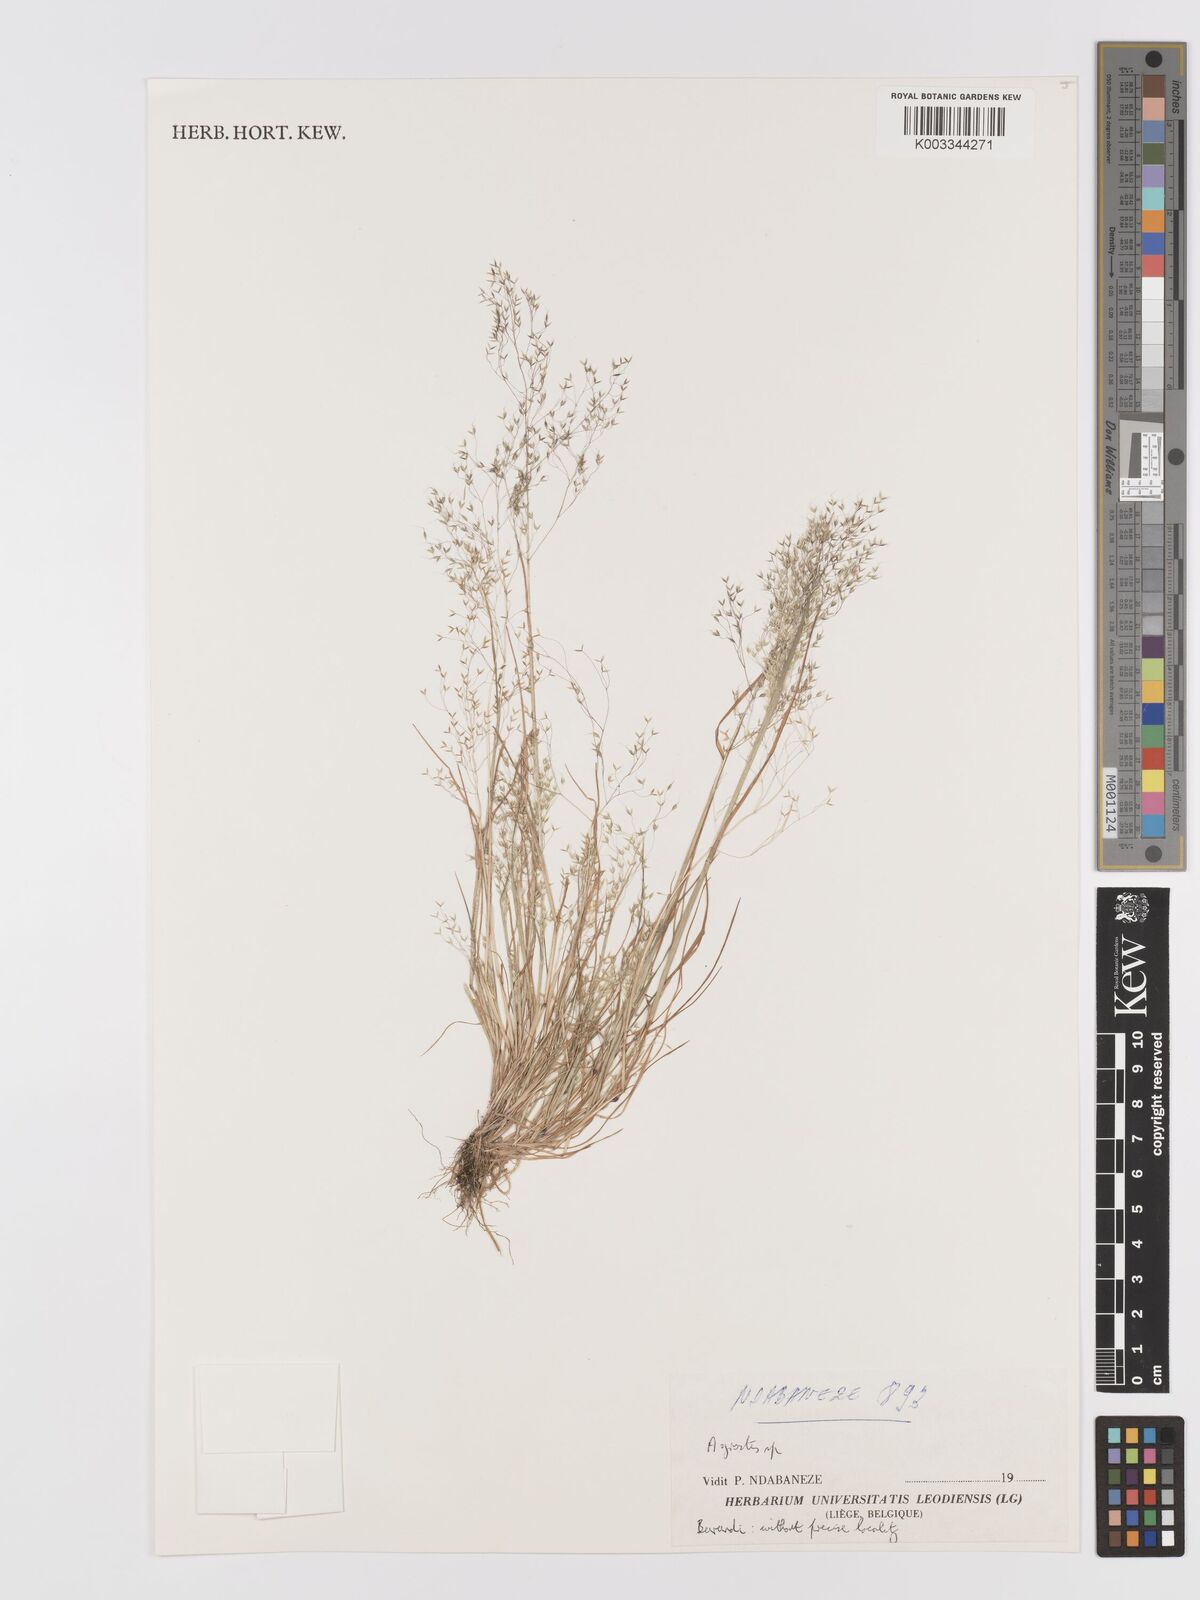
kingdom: Plantae
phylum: Tracheophyta
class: Liliopsida
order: Poales
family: Poaceae
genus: Agrostis
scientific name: Agrostis
